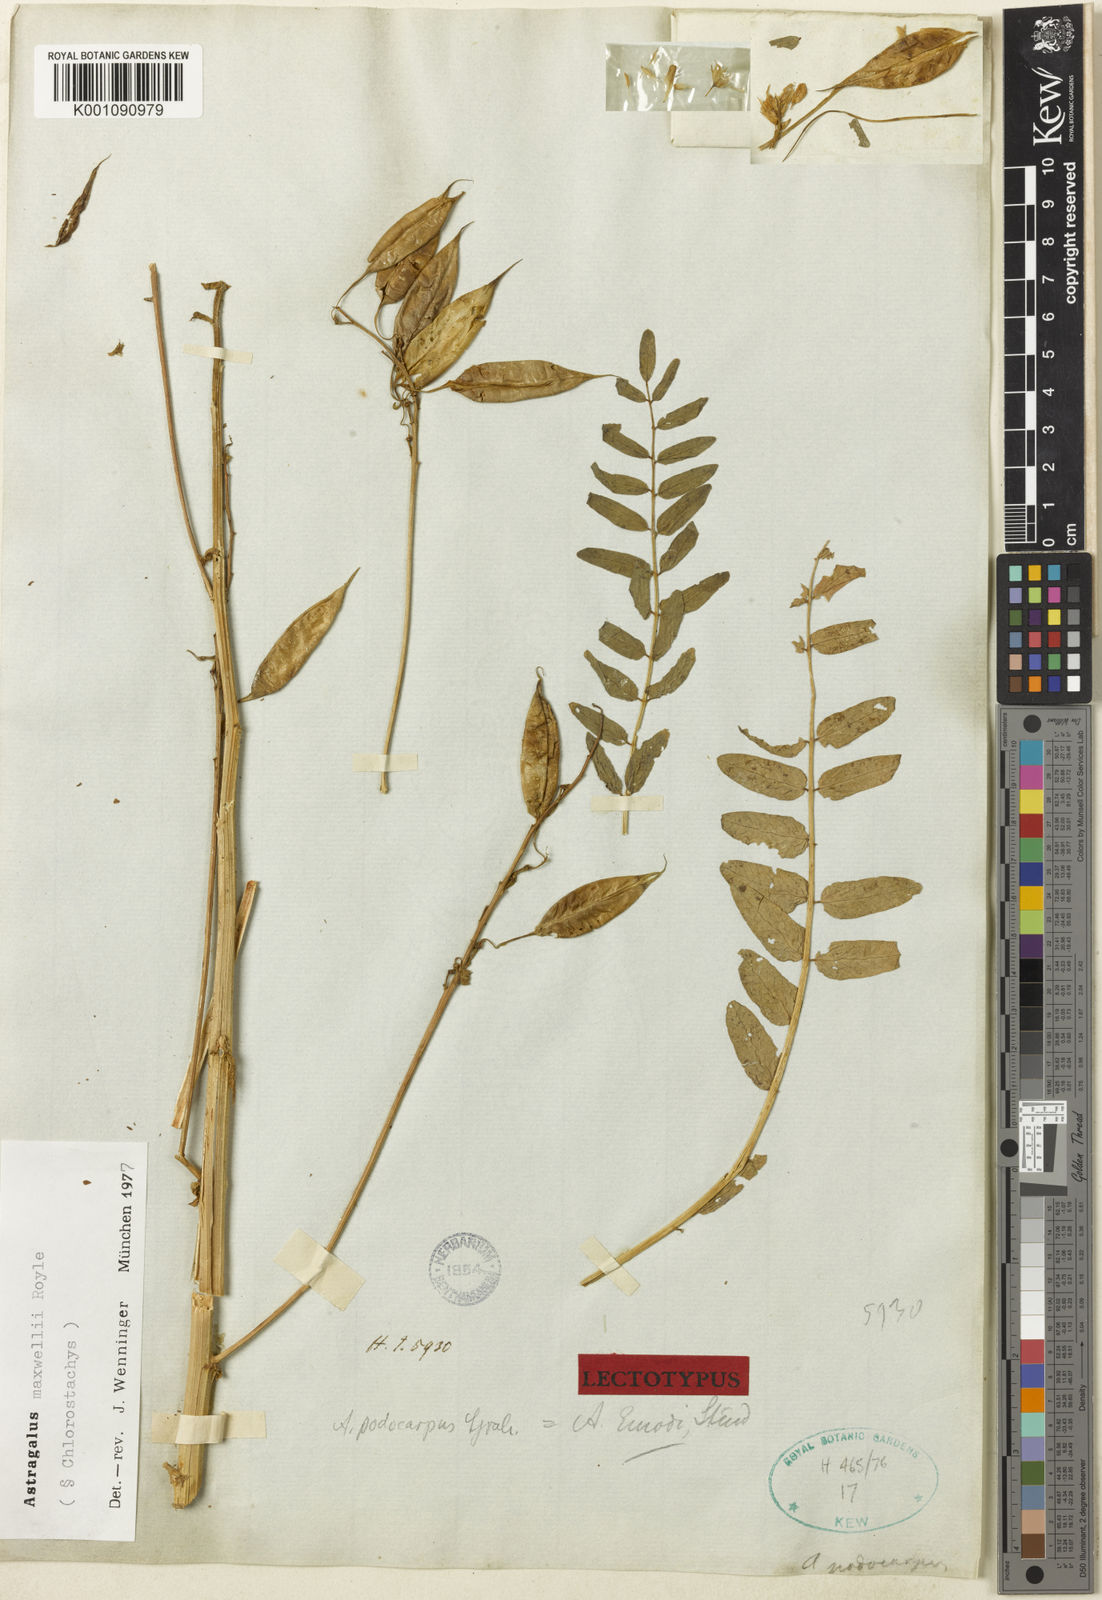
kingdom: Plantae
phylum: Tracheophyta
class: Magnoliopsida
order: Fabales
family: Fabaceae
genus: Astragalus
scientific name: Astragalus
